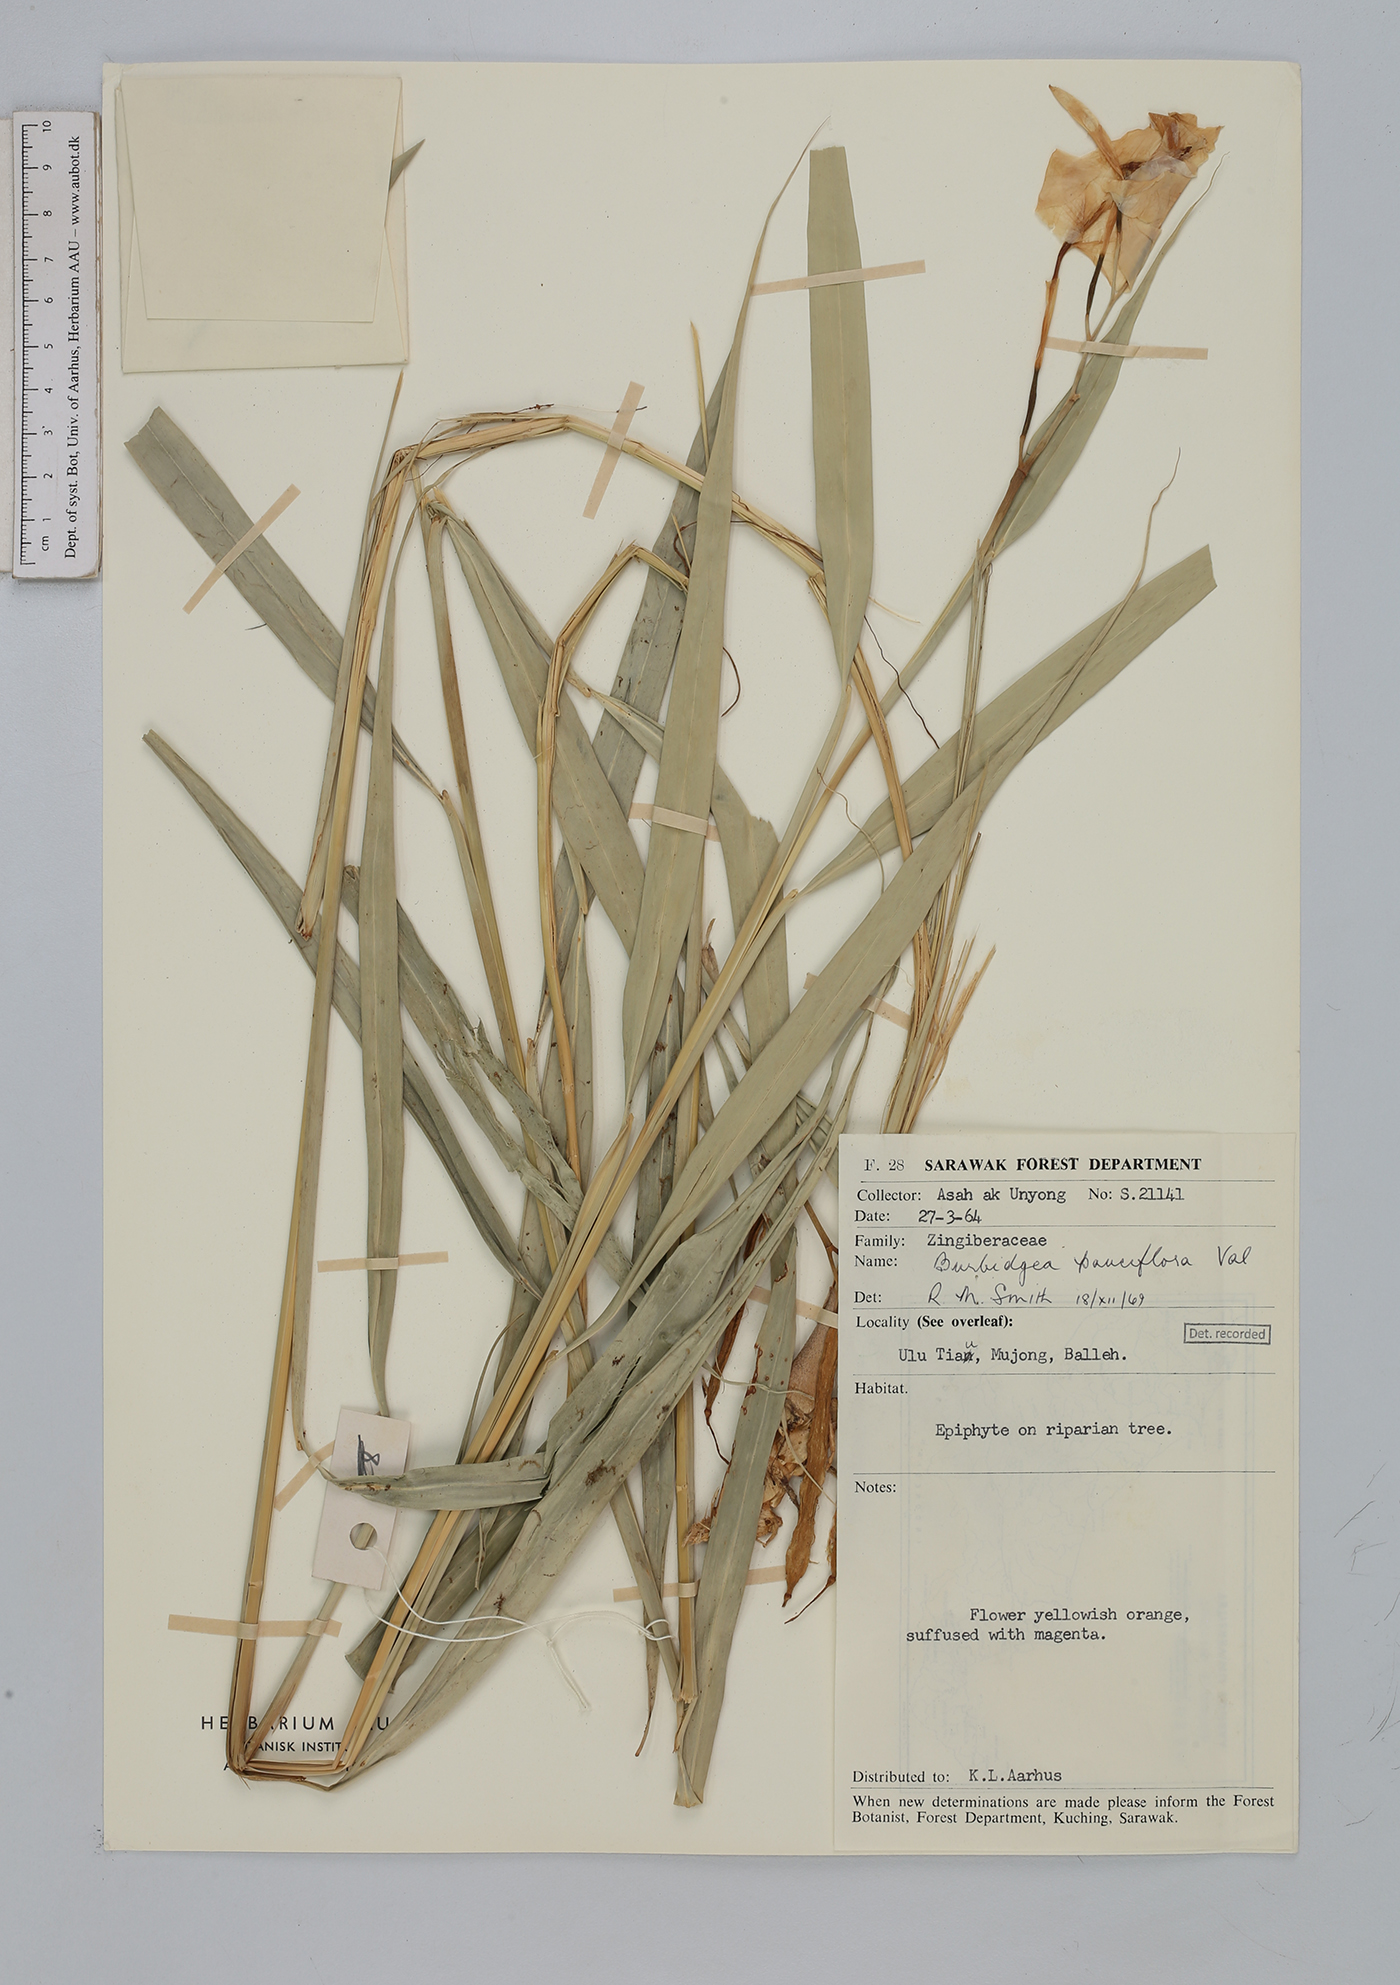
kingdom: Plantae
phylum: Tracheophyta
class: Liliopsida
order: Zingiberales
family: Zingiberaceae
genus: Burbidgea
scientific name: Burbidgea pauciflora
